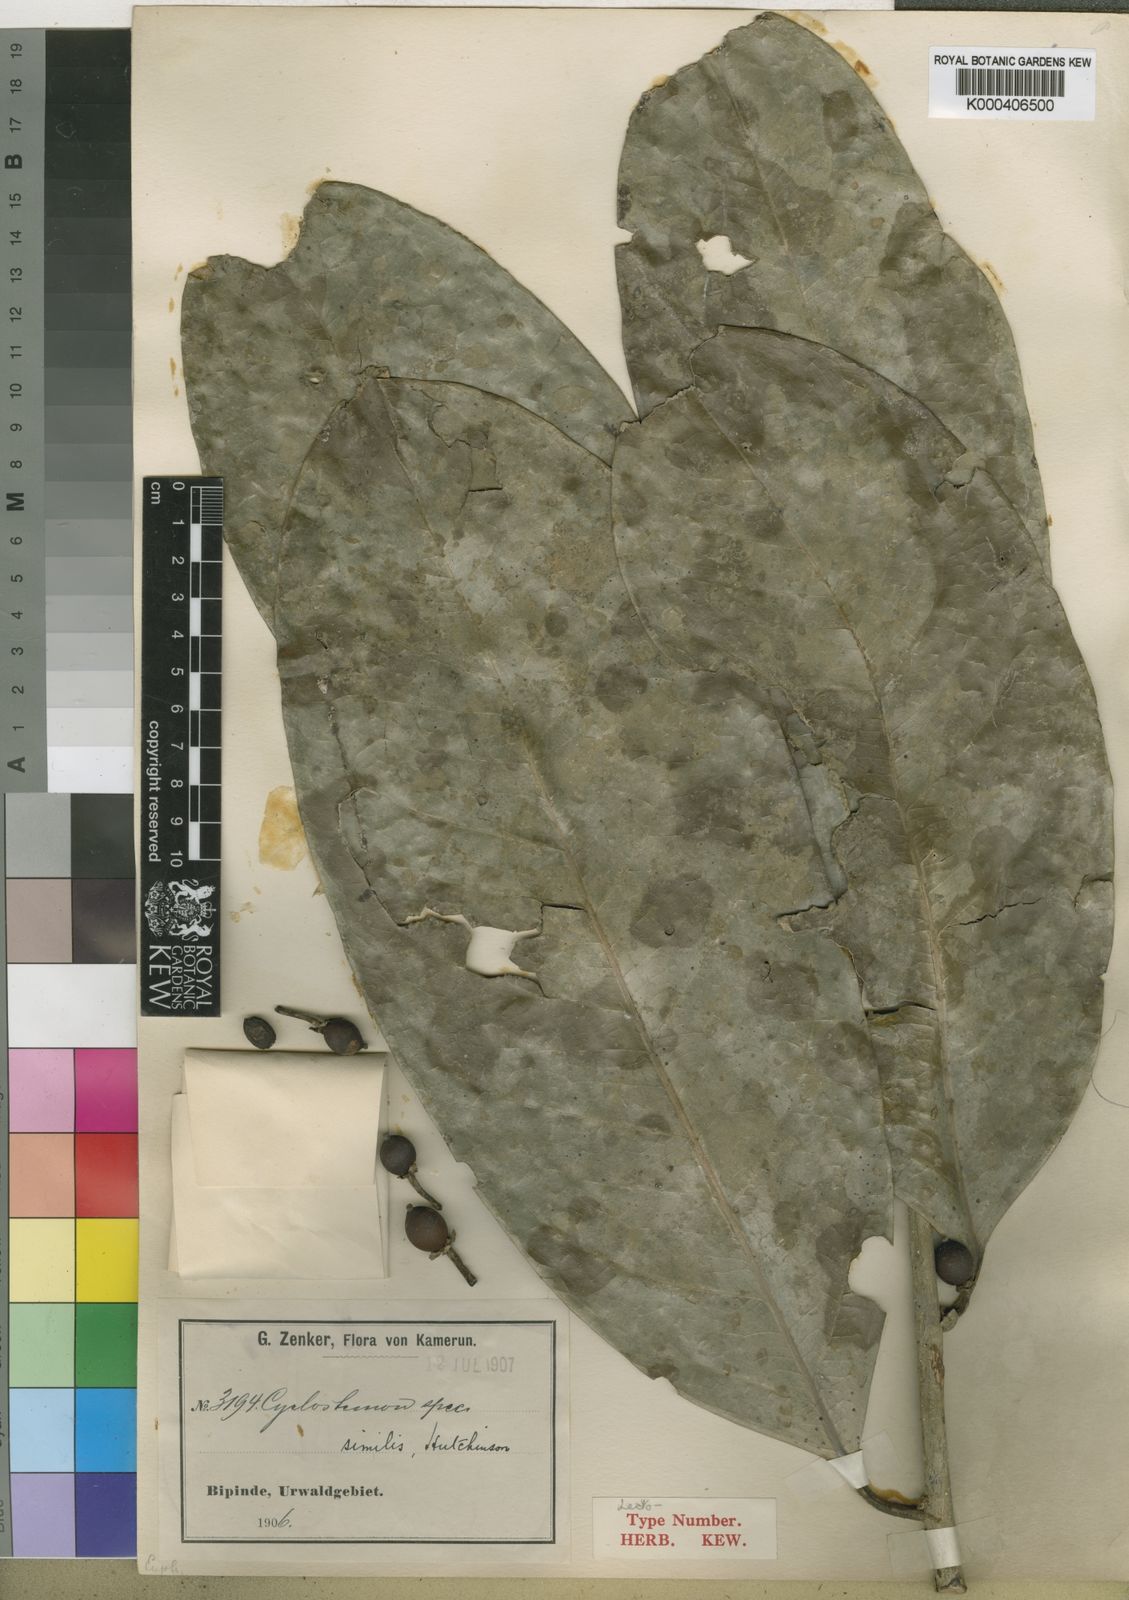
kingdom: Plantae
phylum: Tracheophyta
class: Magnoliopsida
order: Malpighiales
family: Putranjivaceae
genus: Drypetes
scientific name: Drypetes similis
